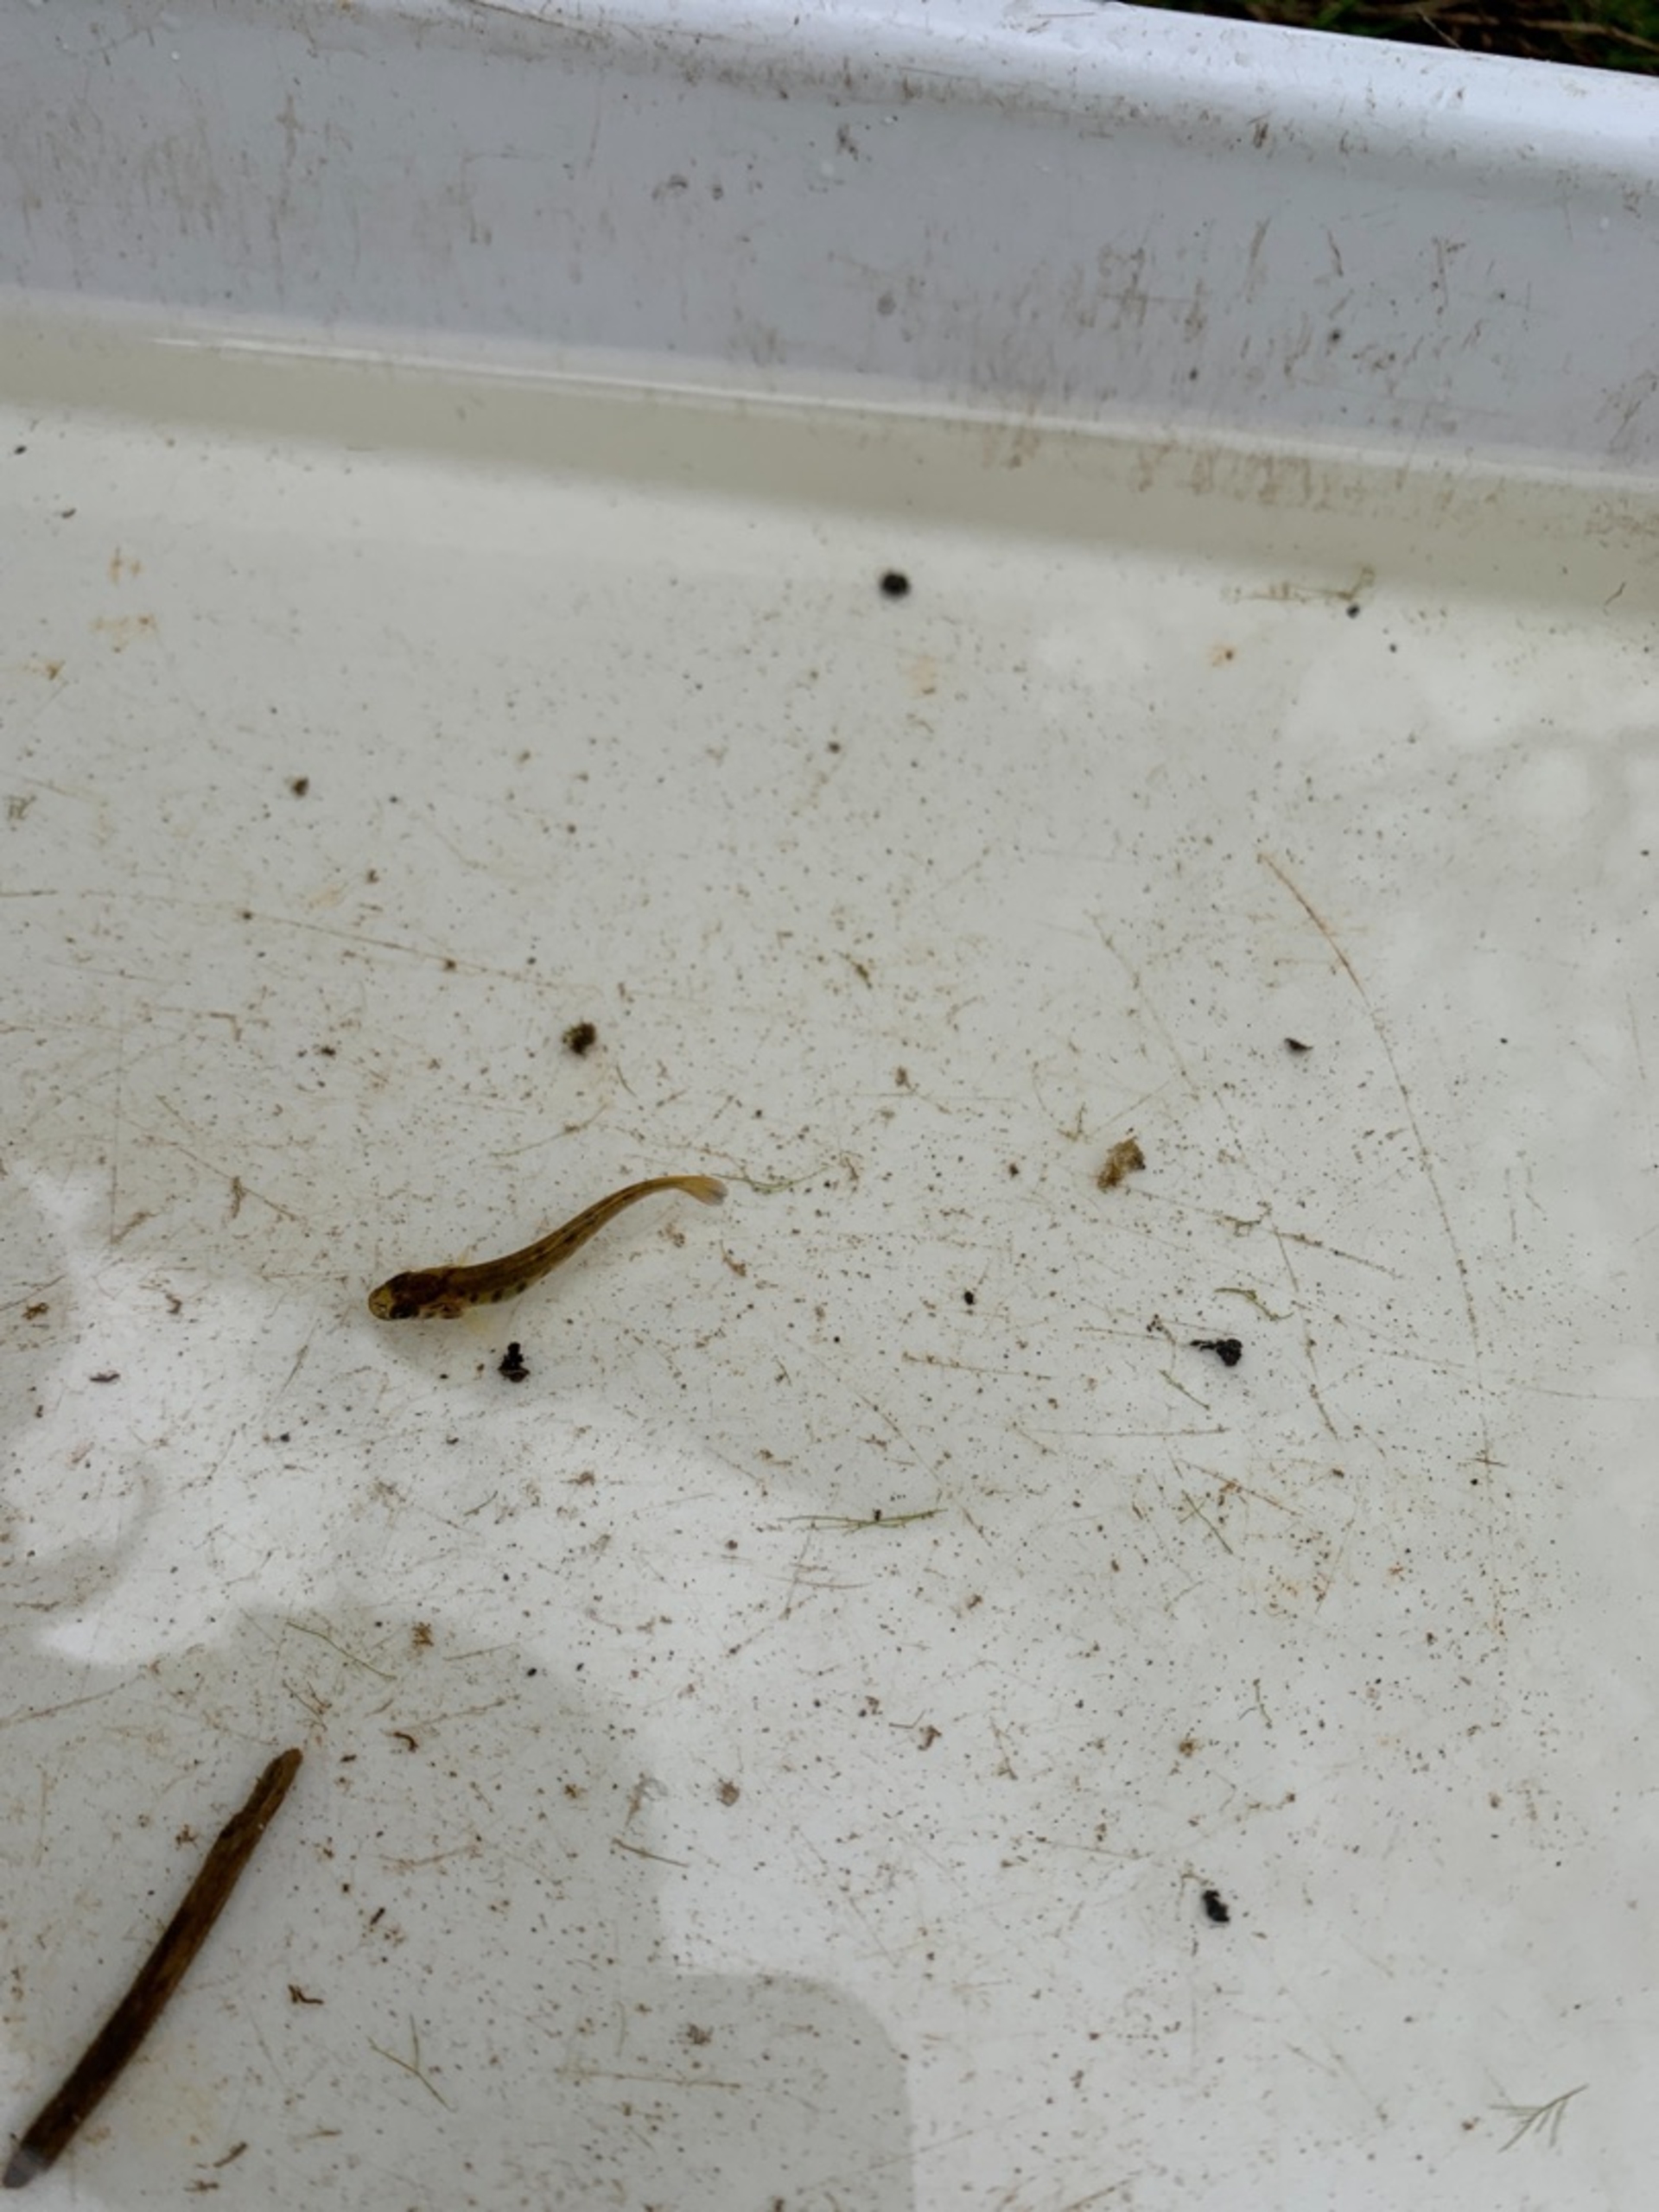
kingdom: Animalia
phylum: Chordata
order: Salmoniformes
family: Salmonidae
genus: Salmo
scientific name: Salmo trutta
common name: Ørred
